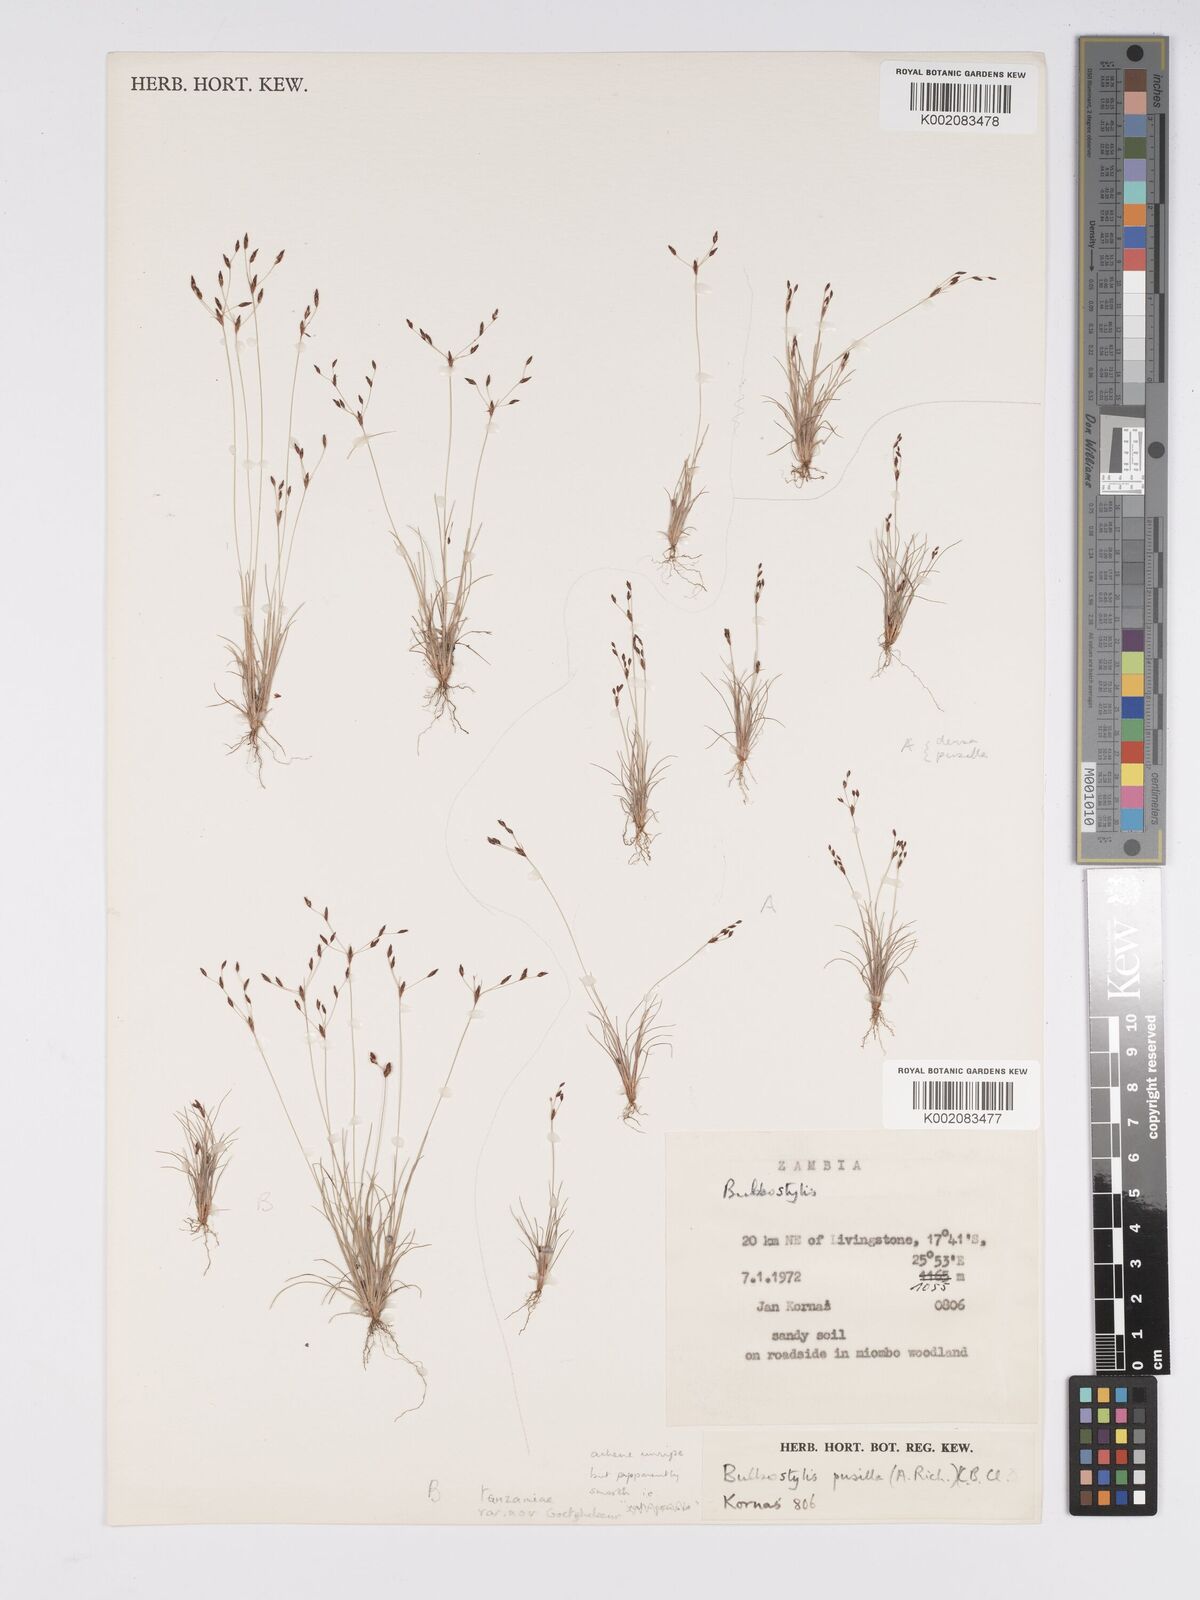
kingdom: Plantae
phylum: Tracheophyta
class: Liliopsida
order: Poales
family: Cyperaceae
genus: Bulbostylis
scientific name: Bulbostylis densa
